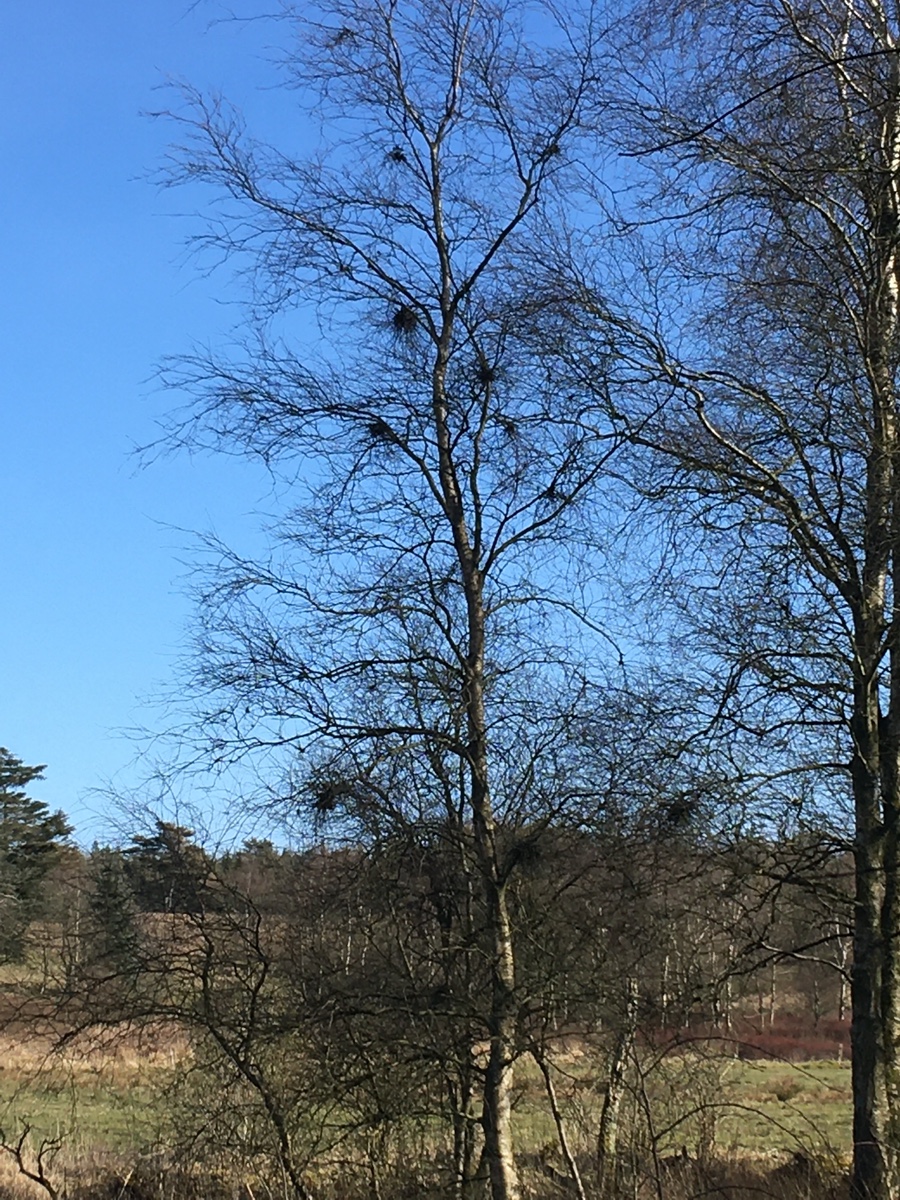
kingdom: Fungi
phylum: Ascomycota
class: Taphrinomycetes
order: Taphrinales
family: Taphrinaceae
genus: Taphrina
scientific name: Taphrina betulina
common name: hekse-sækdug
